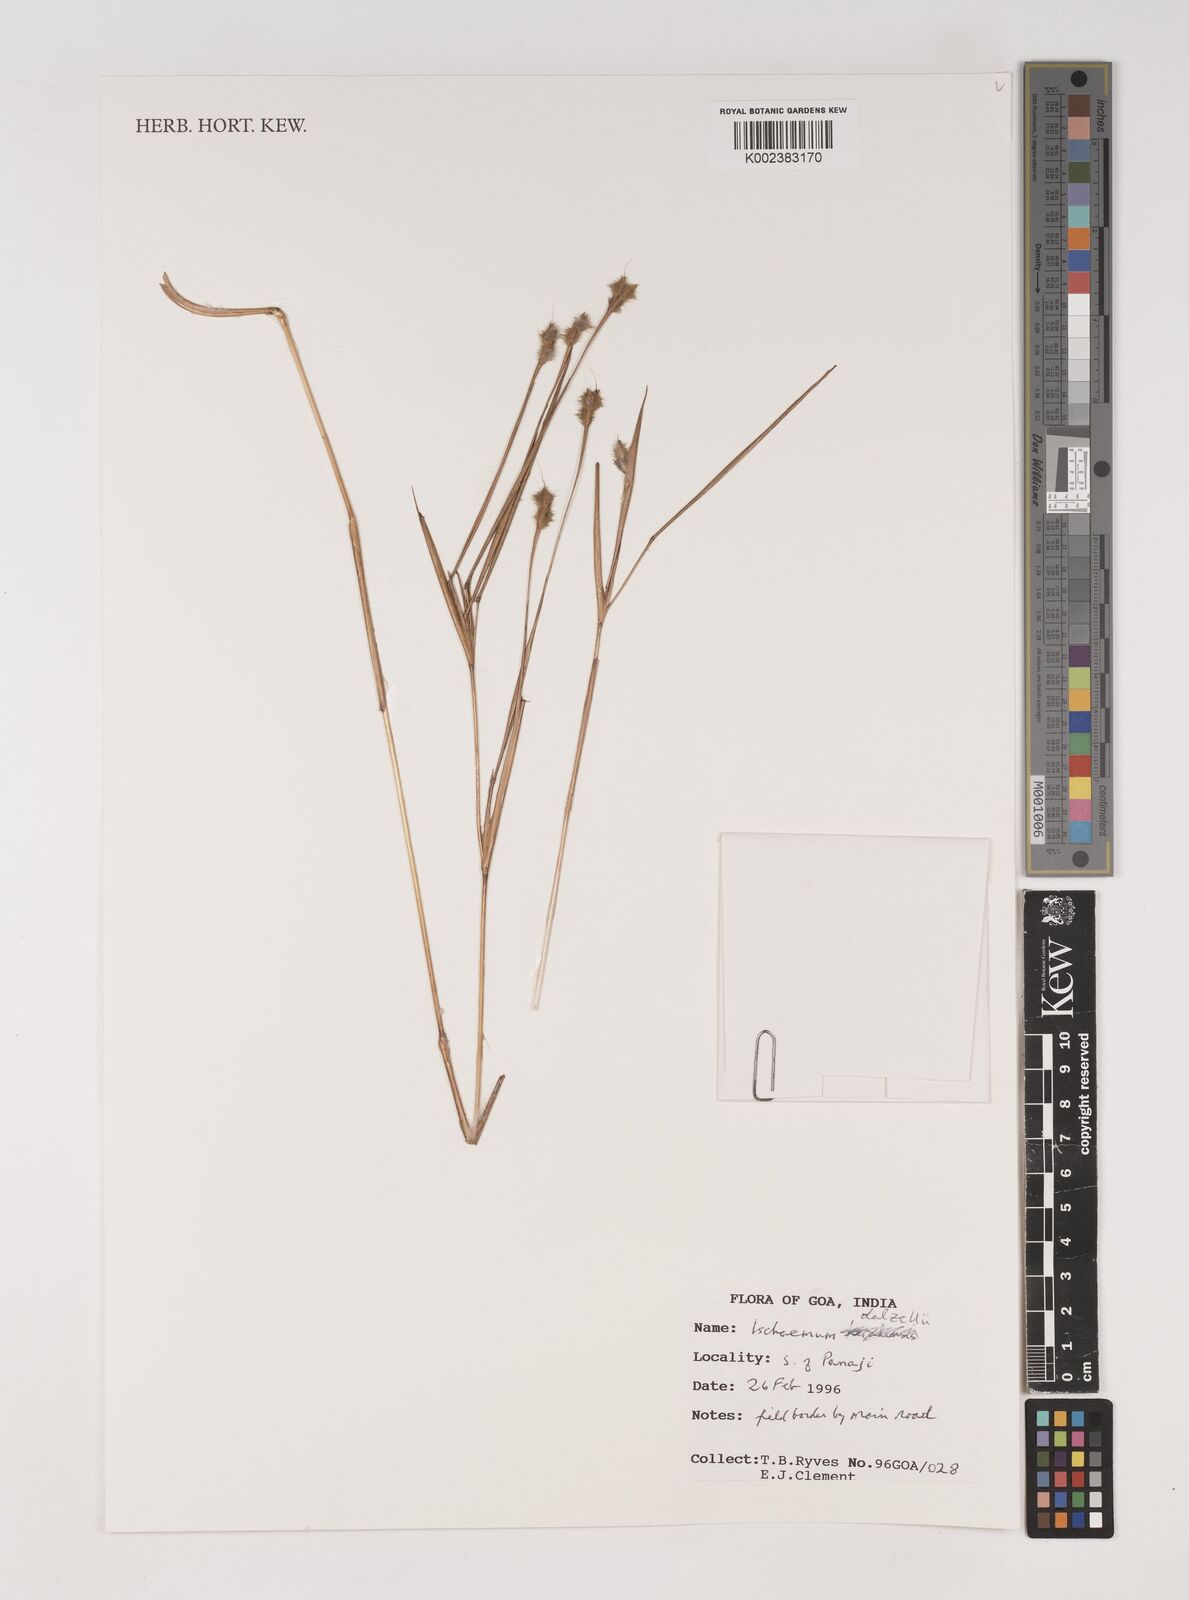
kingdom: Plantae
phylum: Tracheophyta
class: Liliopsida
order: Poales
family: Poaceae
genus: Ischaemum
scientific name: Ischaemum dalzellii
